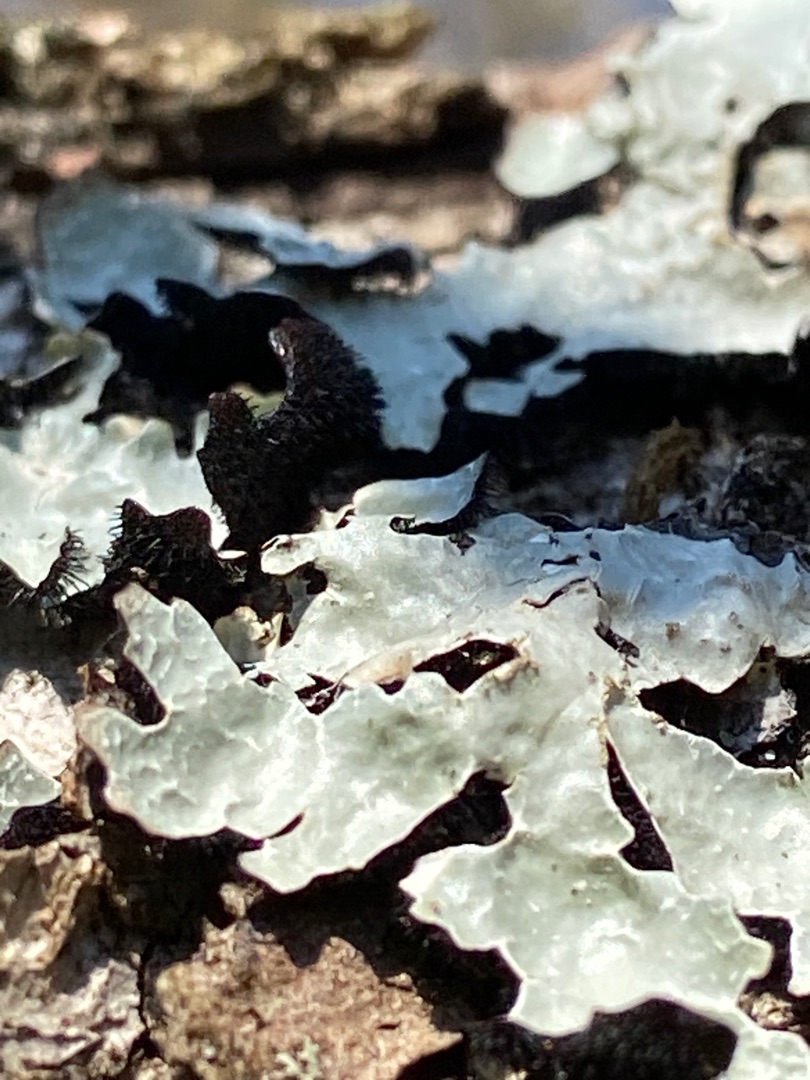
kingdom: Fungi
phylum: Ascomycota
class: Lecanoromycetes
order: Lecanorales
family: Parmeliaceae
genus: Parmelia
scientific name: Parmelia sulcata
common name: Rynket skållav
